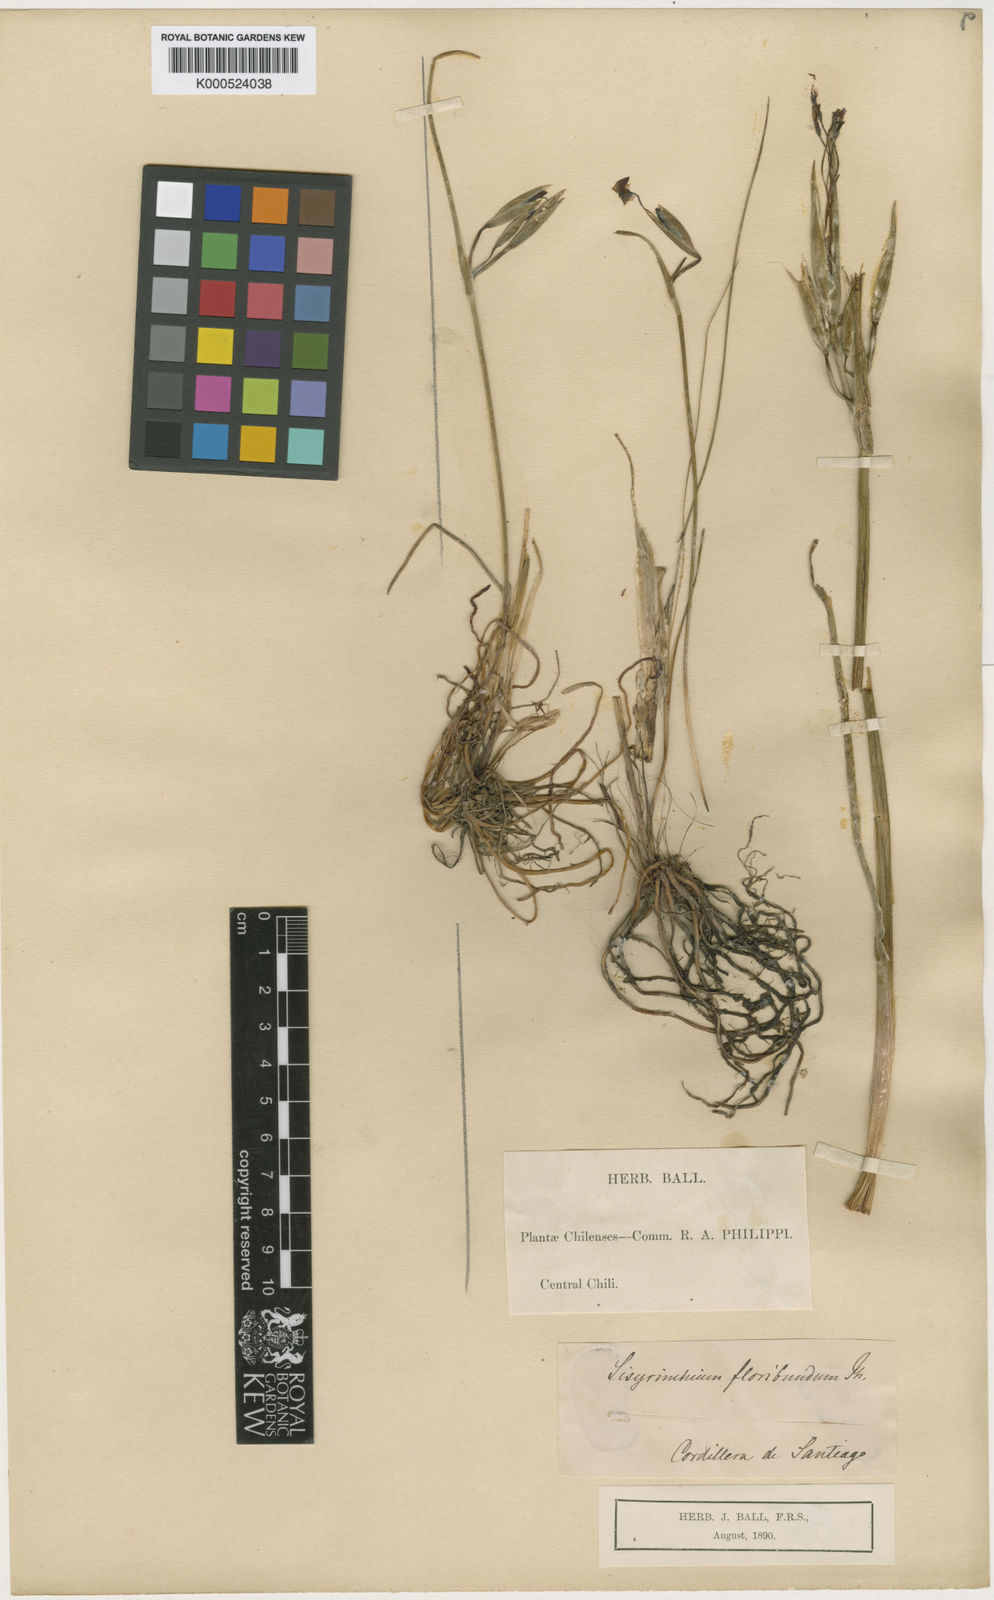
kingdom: Plantae
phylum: Tracheophyta
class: Liliopsida
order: Asparagales
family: Iridaceae
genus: Olsynium
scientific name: Olsynium junceum
